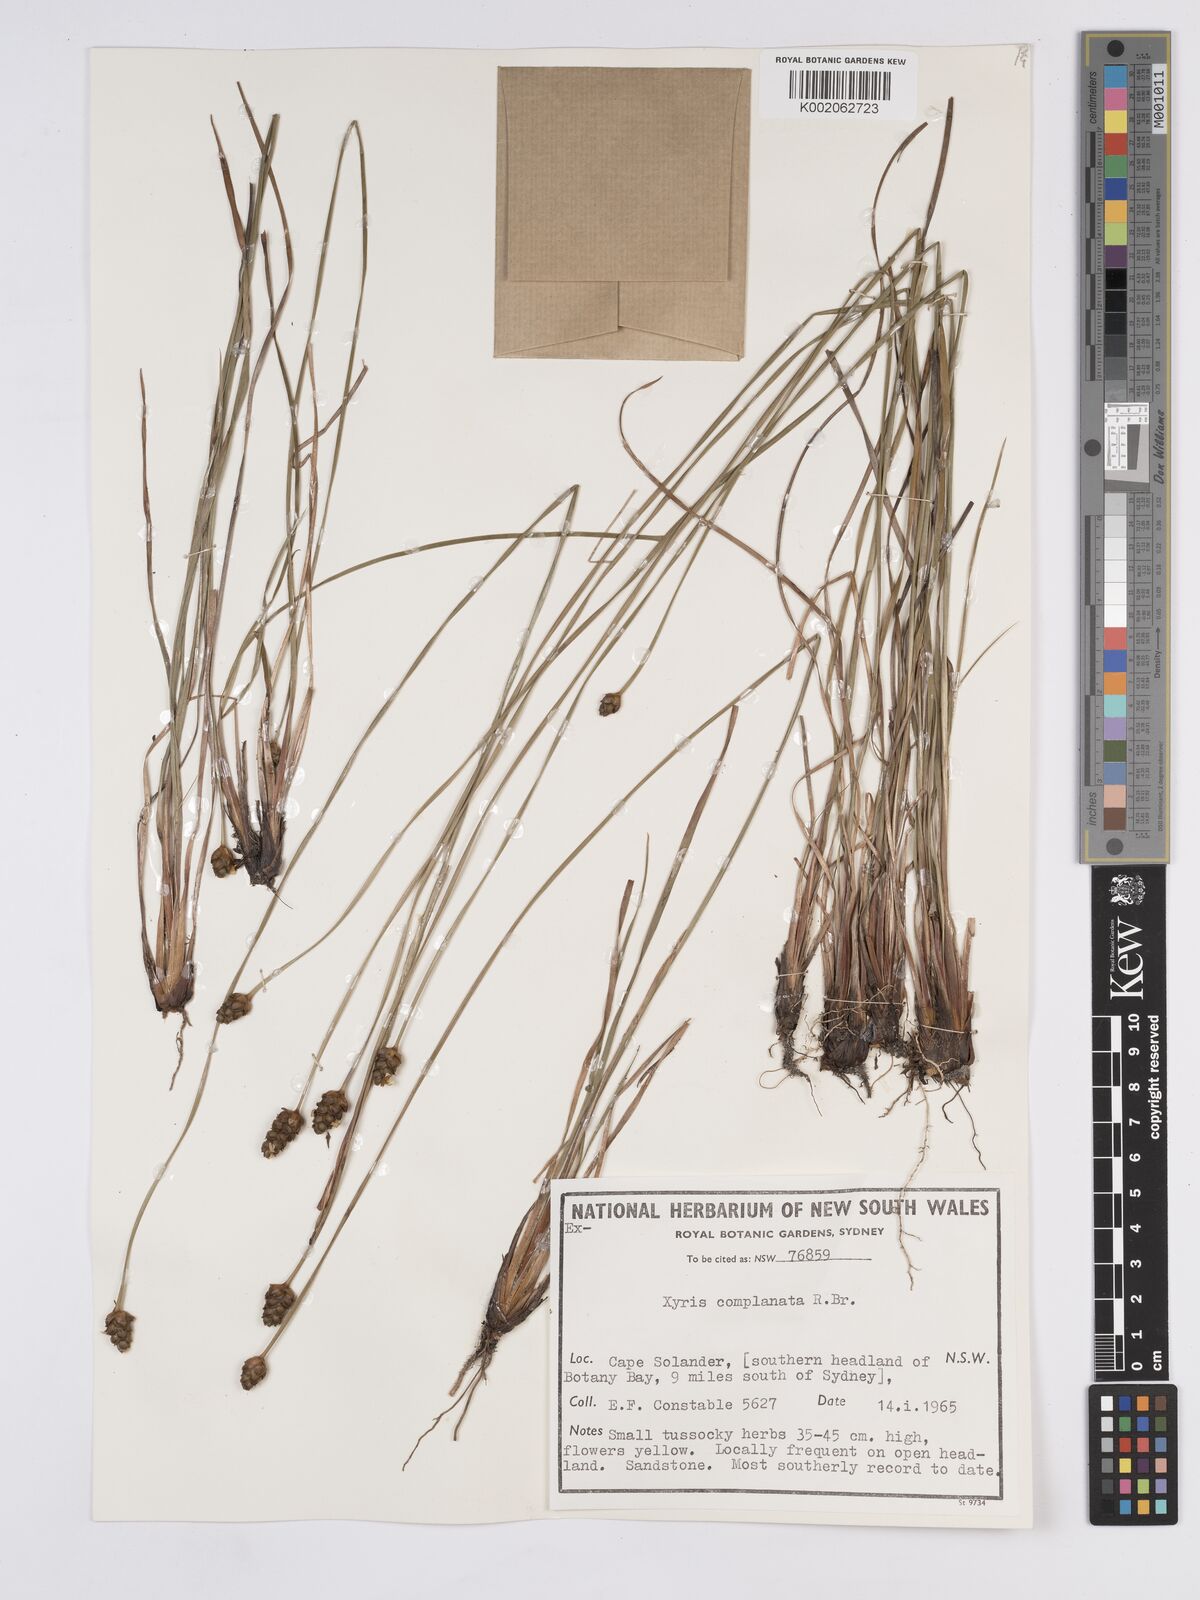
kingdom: Plantae
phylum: Tracheophyta
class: Liliopsida
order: Poales
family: Xyridaceae
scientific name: Xyridaceae
